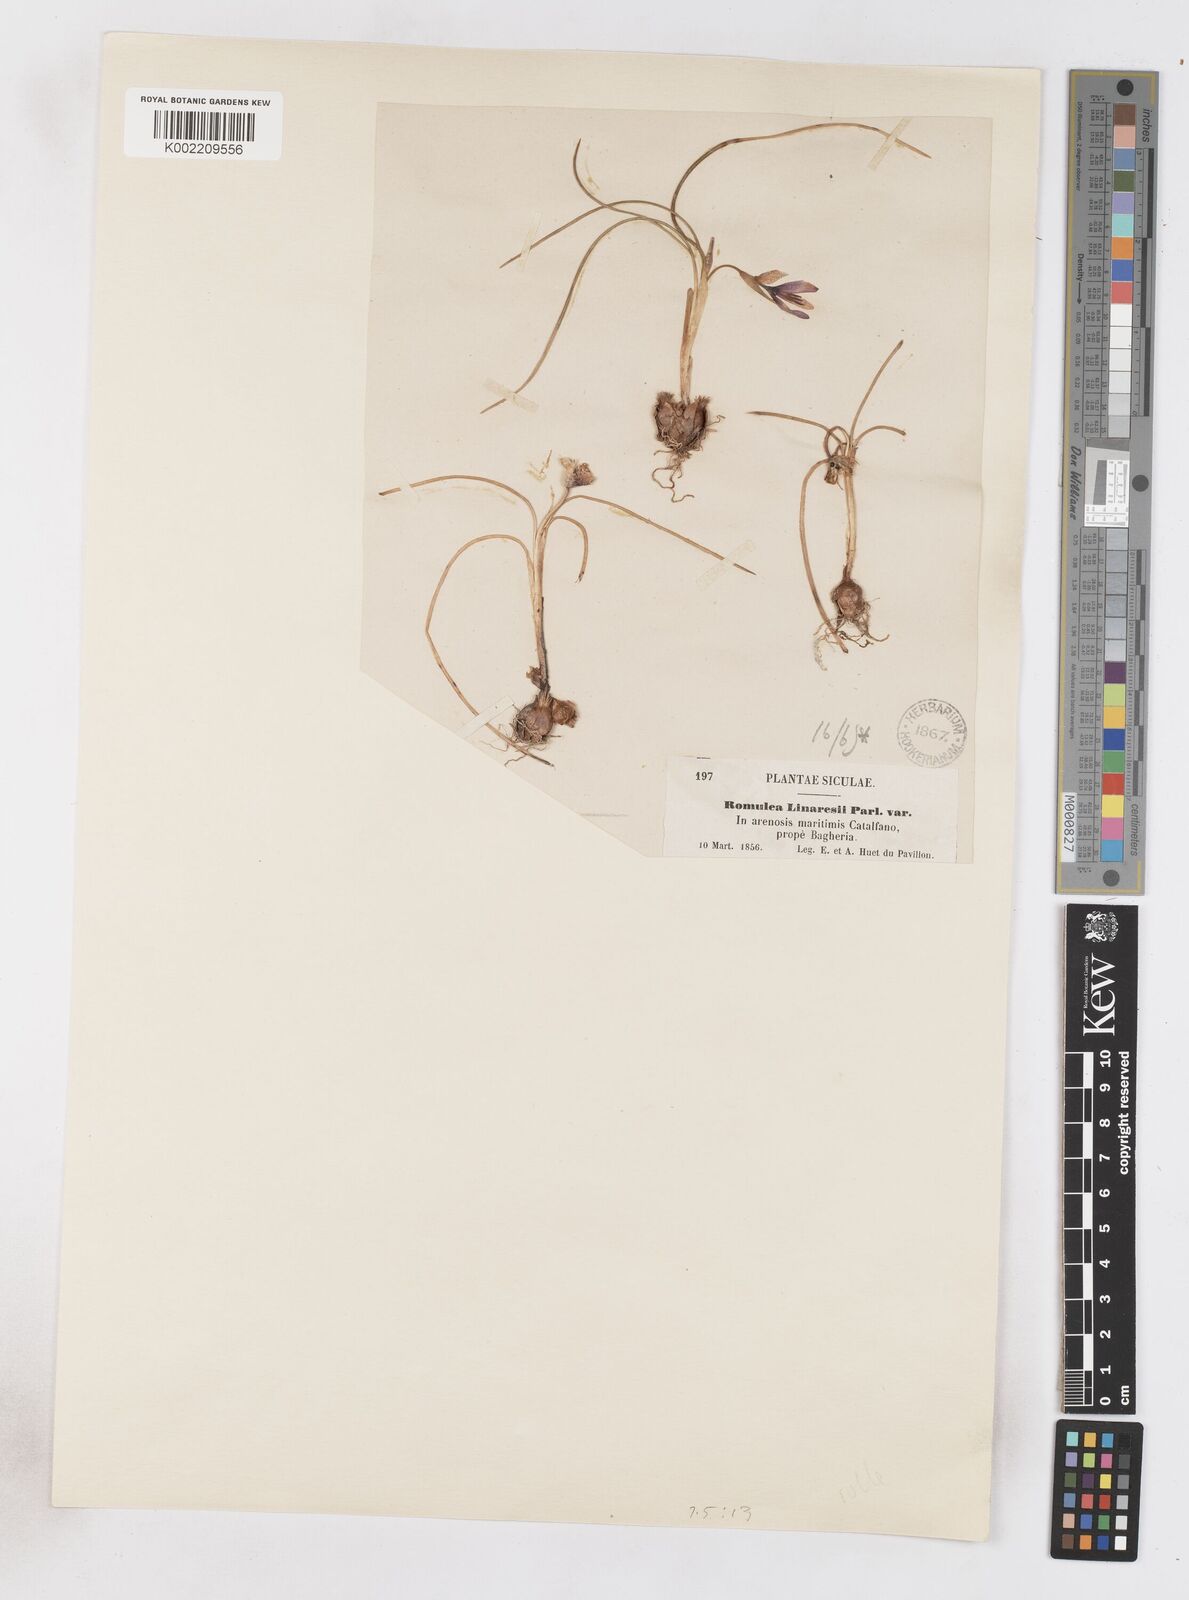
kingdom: Plantae
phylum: Tracheophyta
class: Liliopsida
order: Asparagales
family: Iridaceae
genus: Romulea
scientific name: Romulea linaresii
